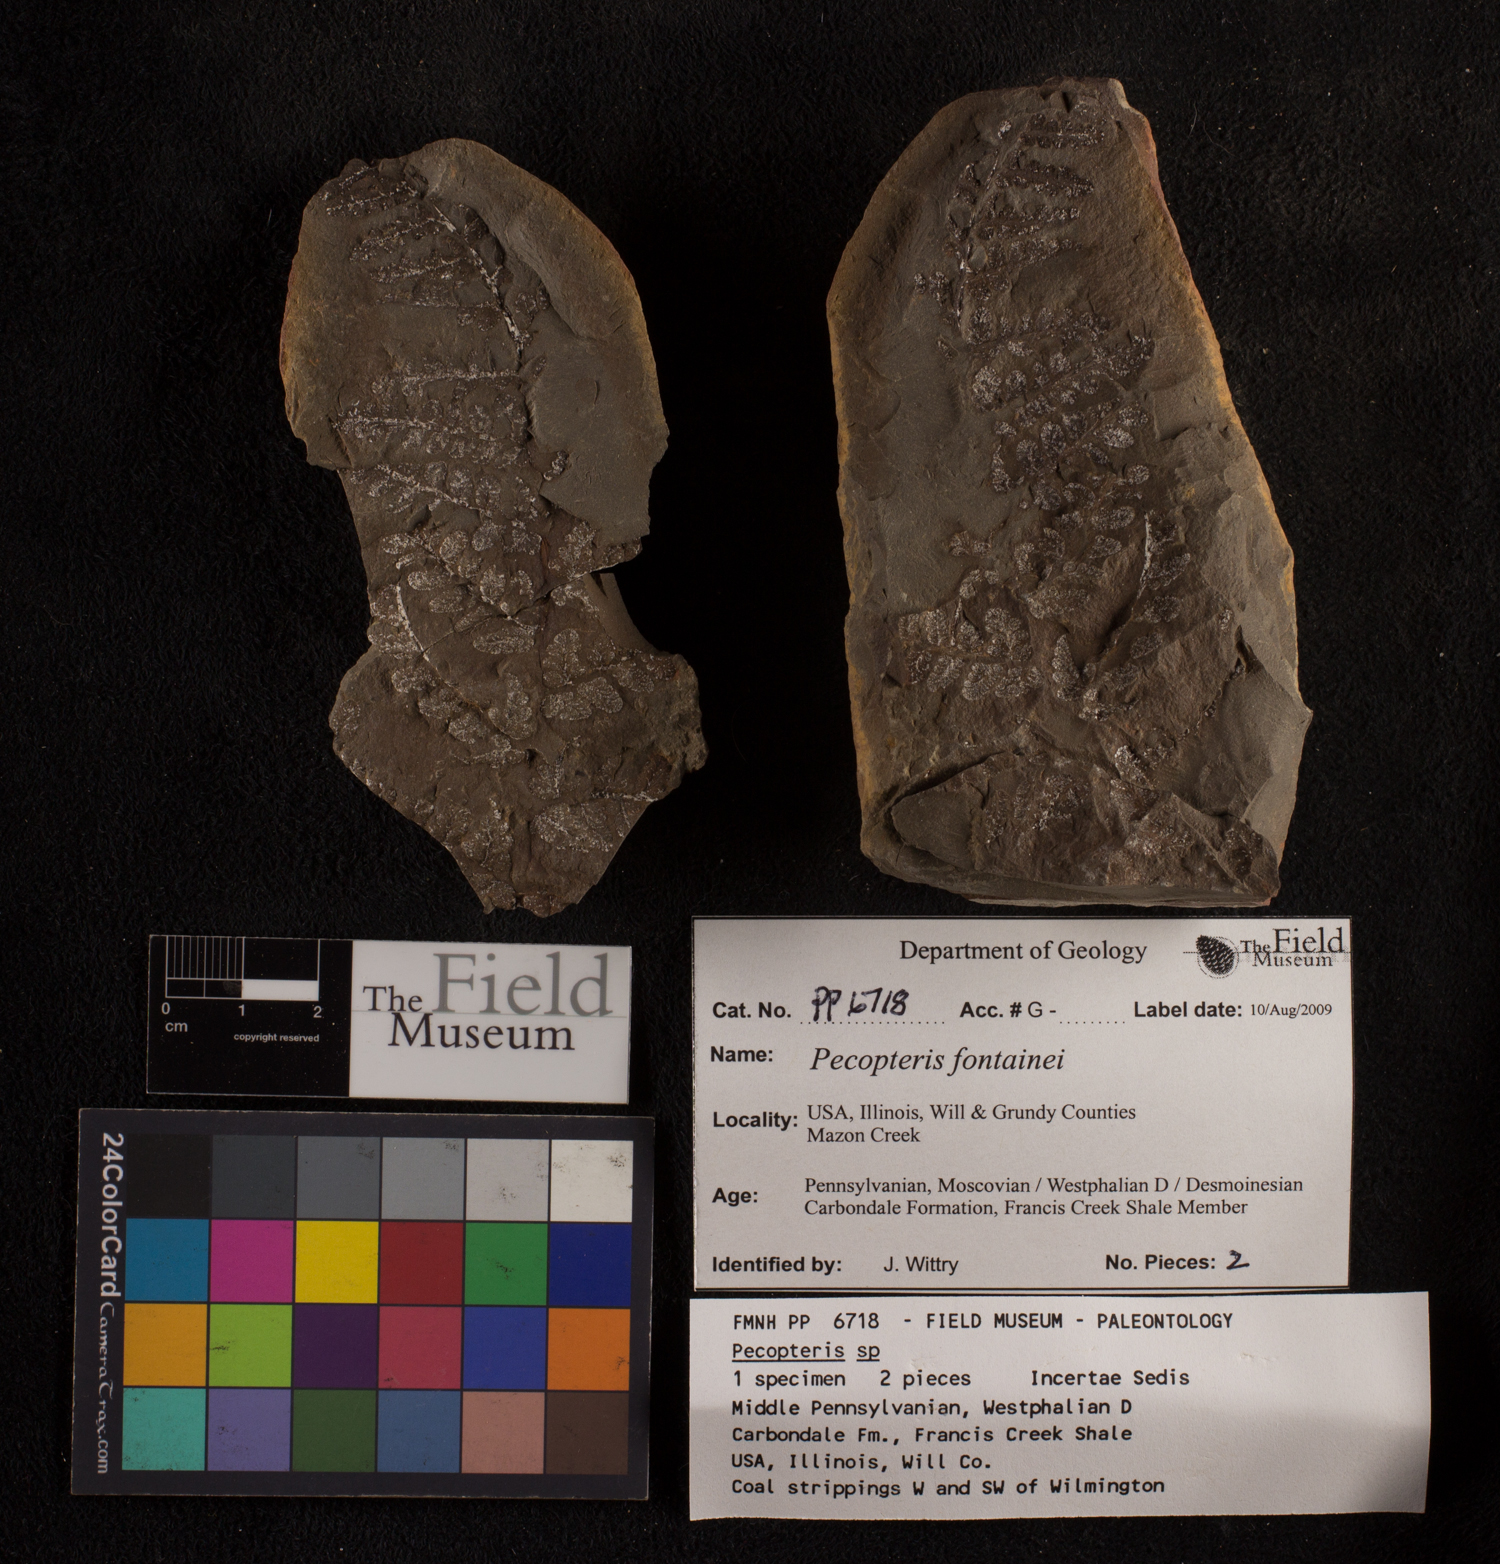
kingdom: Plantae
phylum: Tracheophyta
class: Polypodiopsida
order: Marattiales
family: Asterothecaceae
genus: Pecopteris
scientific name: Pecopteris
